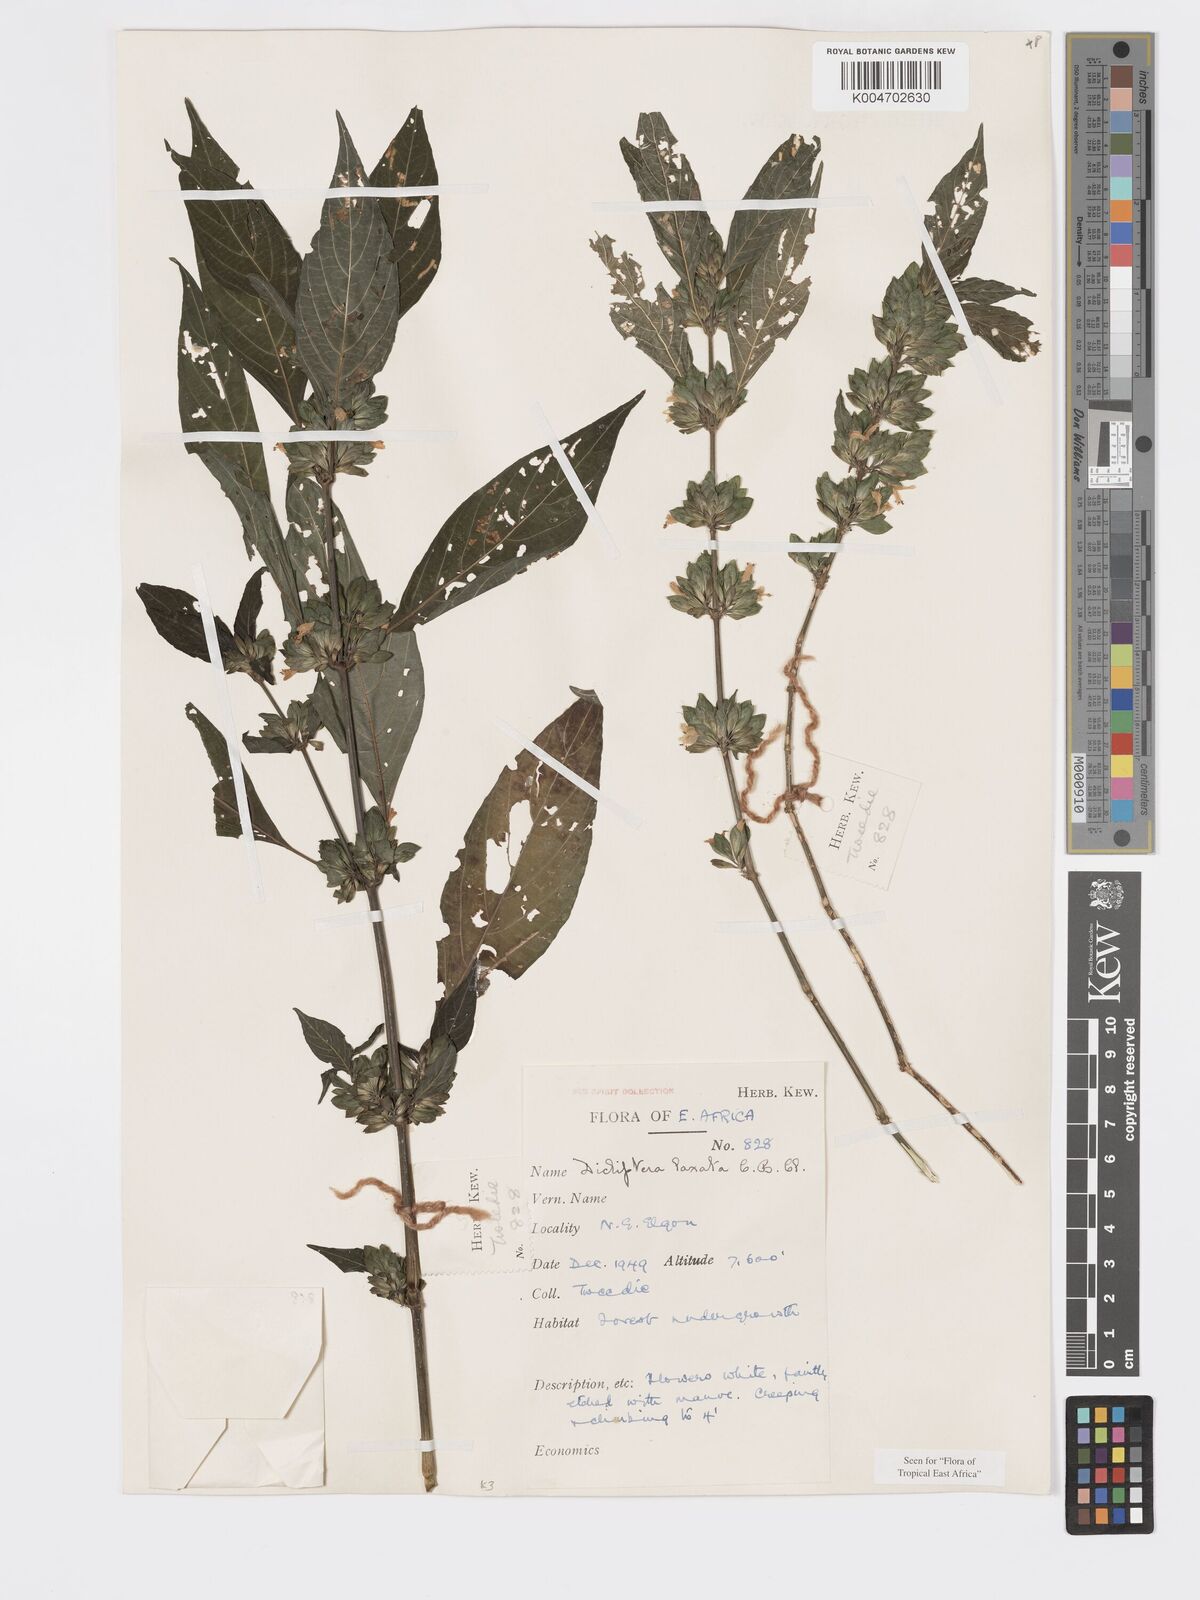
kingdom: Plantae
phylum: Tracheophyta
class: Magnoliopsida
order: Lamiales
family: Acanthaceae
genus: Dicliptera
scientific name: Dicliptera laxata
